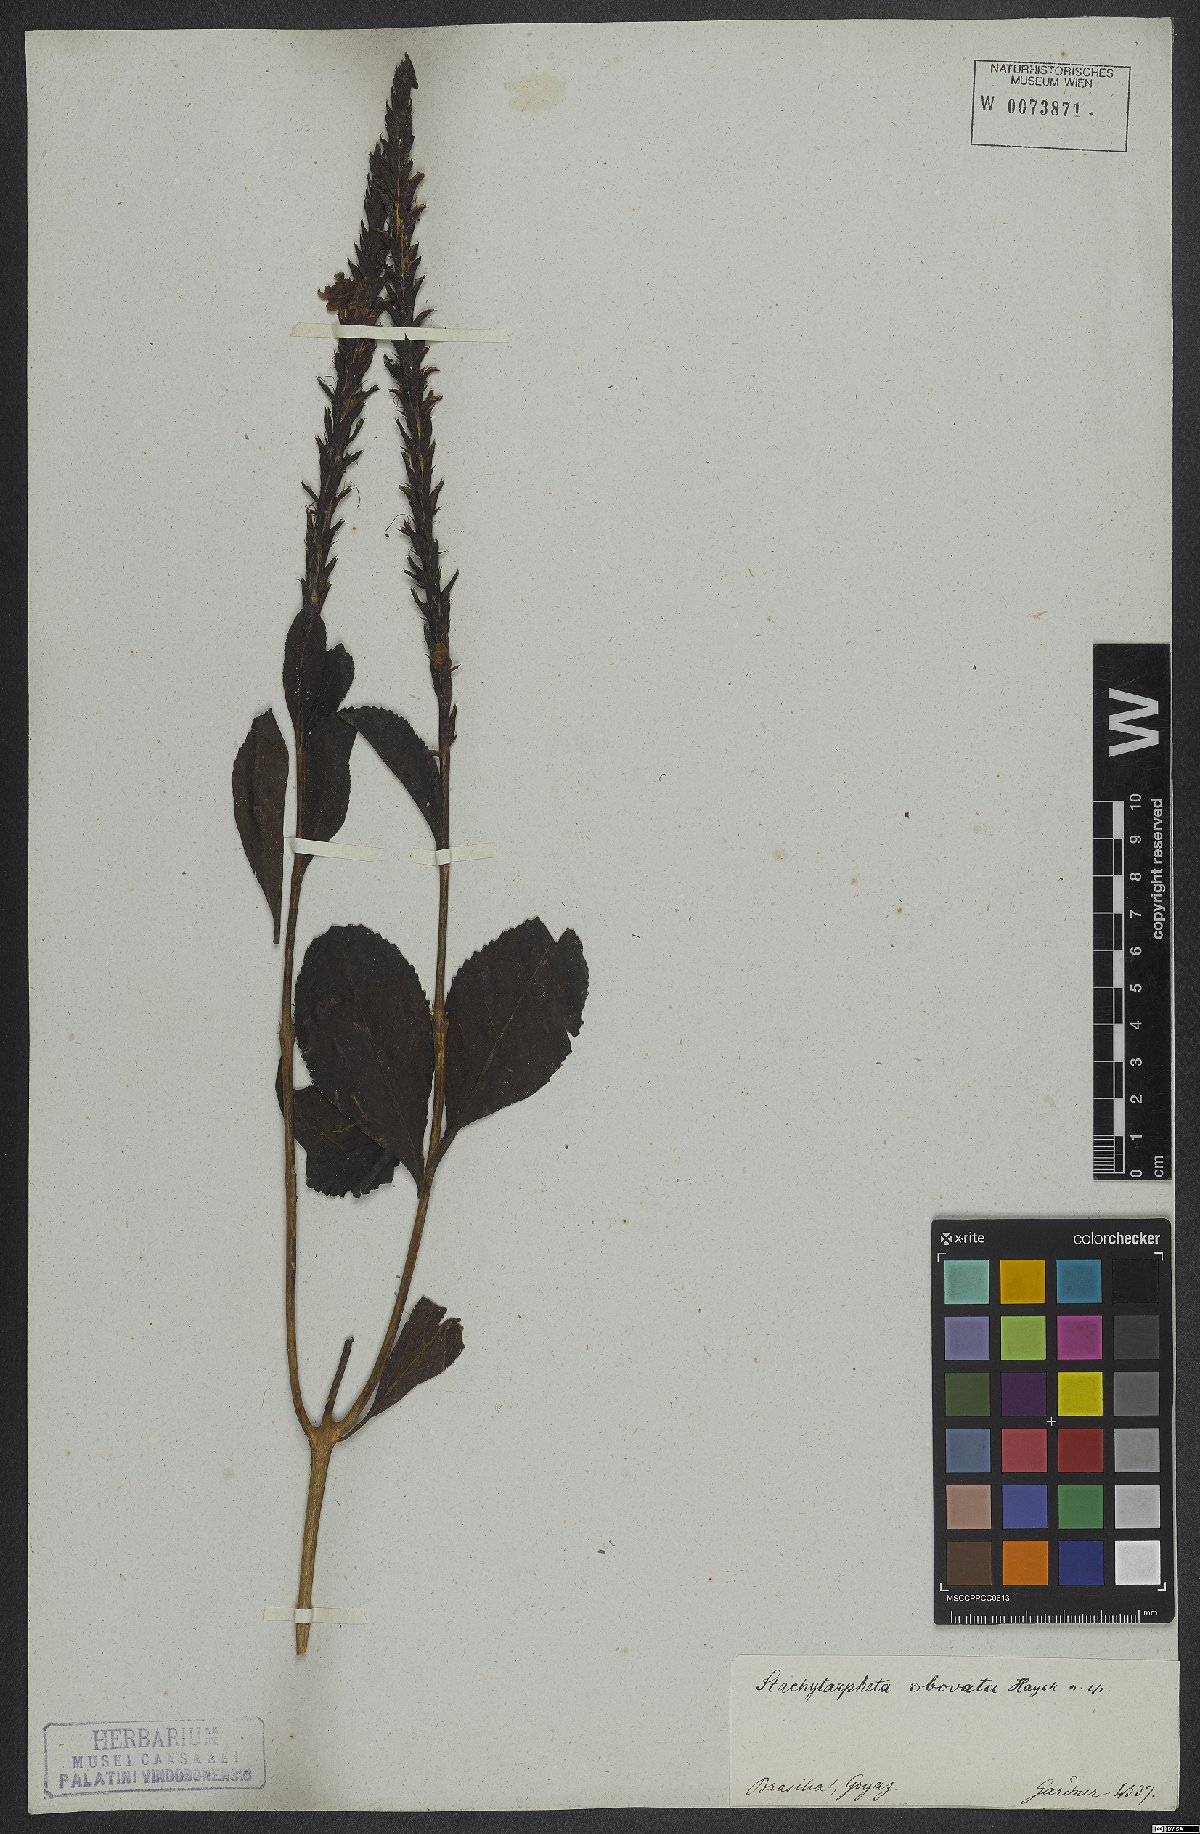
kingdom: Plantae
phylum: Tracheophyta
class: Magnoliopsida
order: Lamiales
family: Verbenaceae
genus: Stachytarpheta
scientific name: Stachytarpheta martiana
